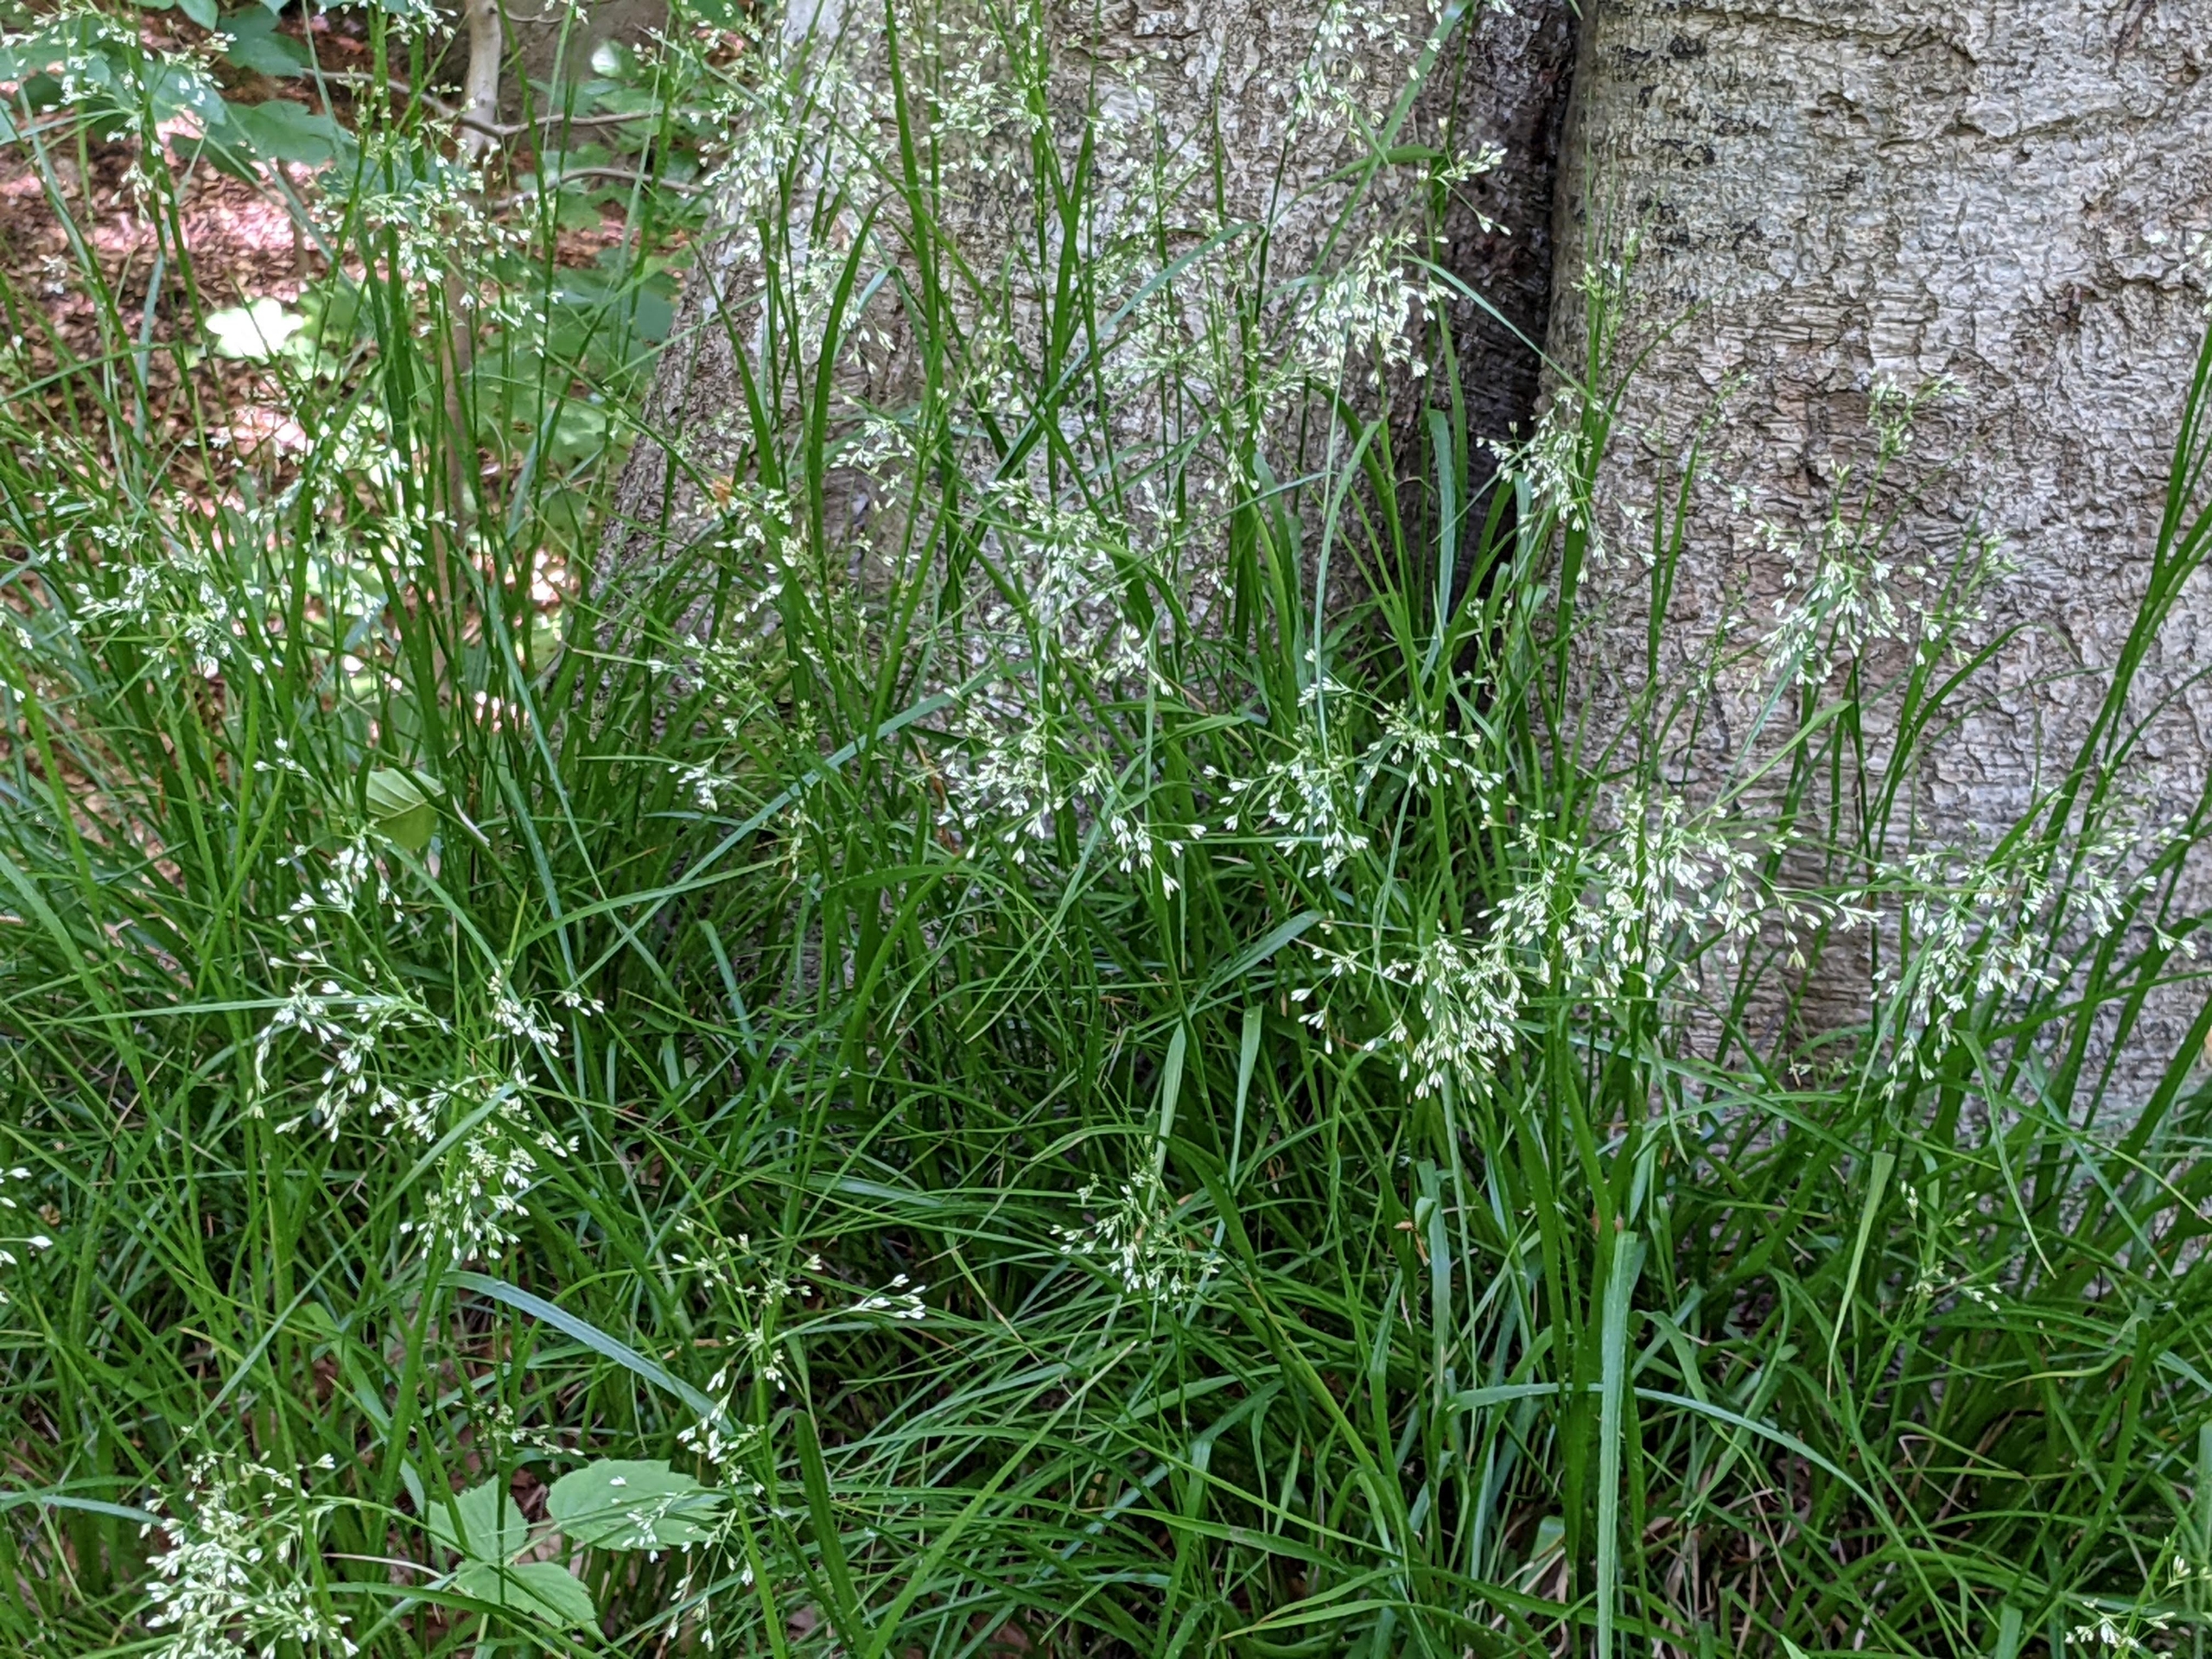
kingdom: Plantae
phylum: Tracheophyta
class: Liliopsida
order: Poales
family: Juncaceae
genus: Luzula
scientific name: Luzula luzuloides
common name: Bleg frytle
